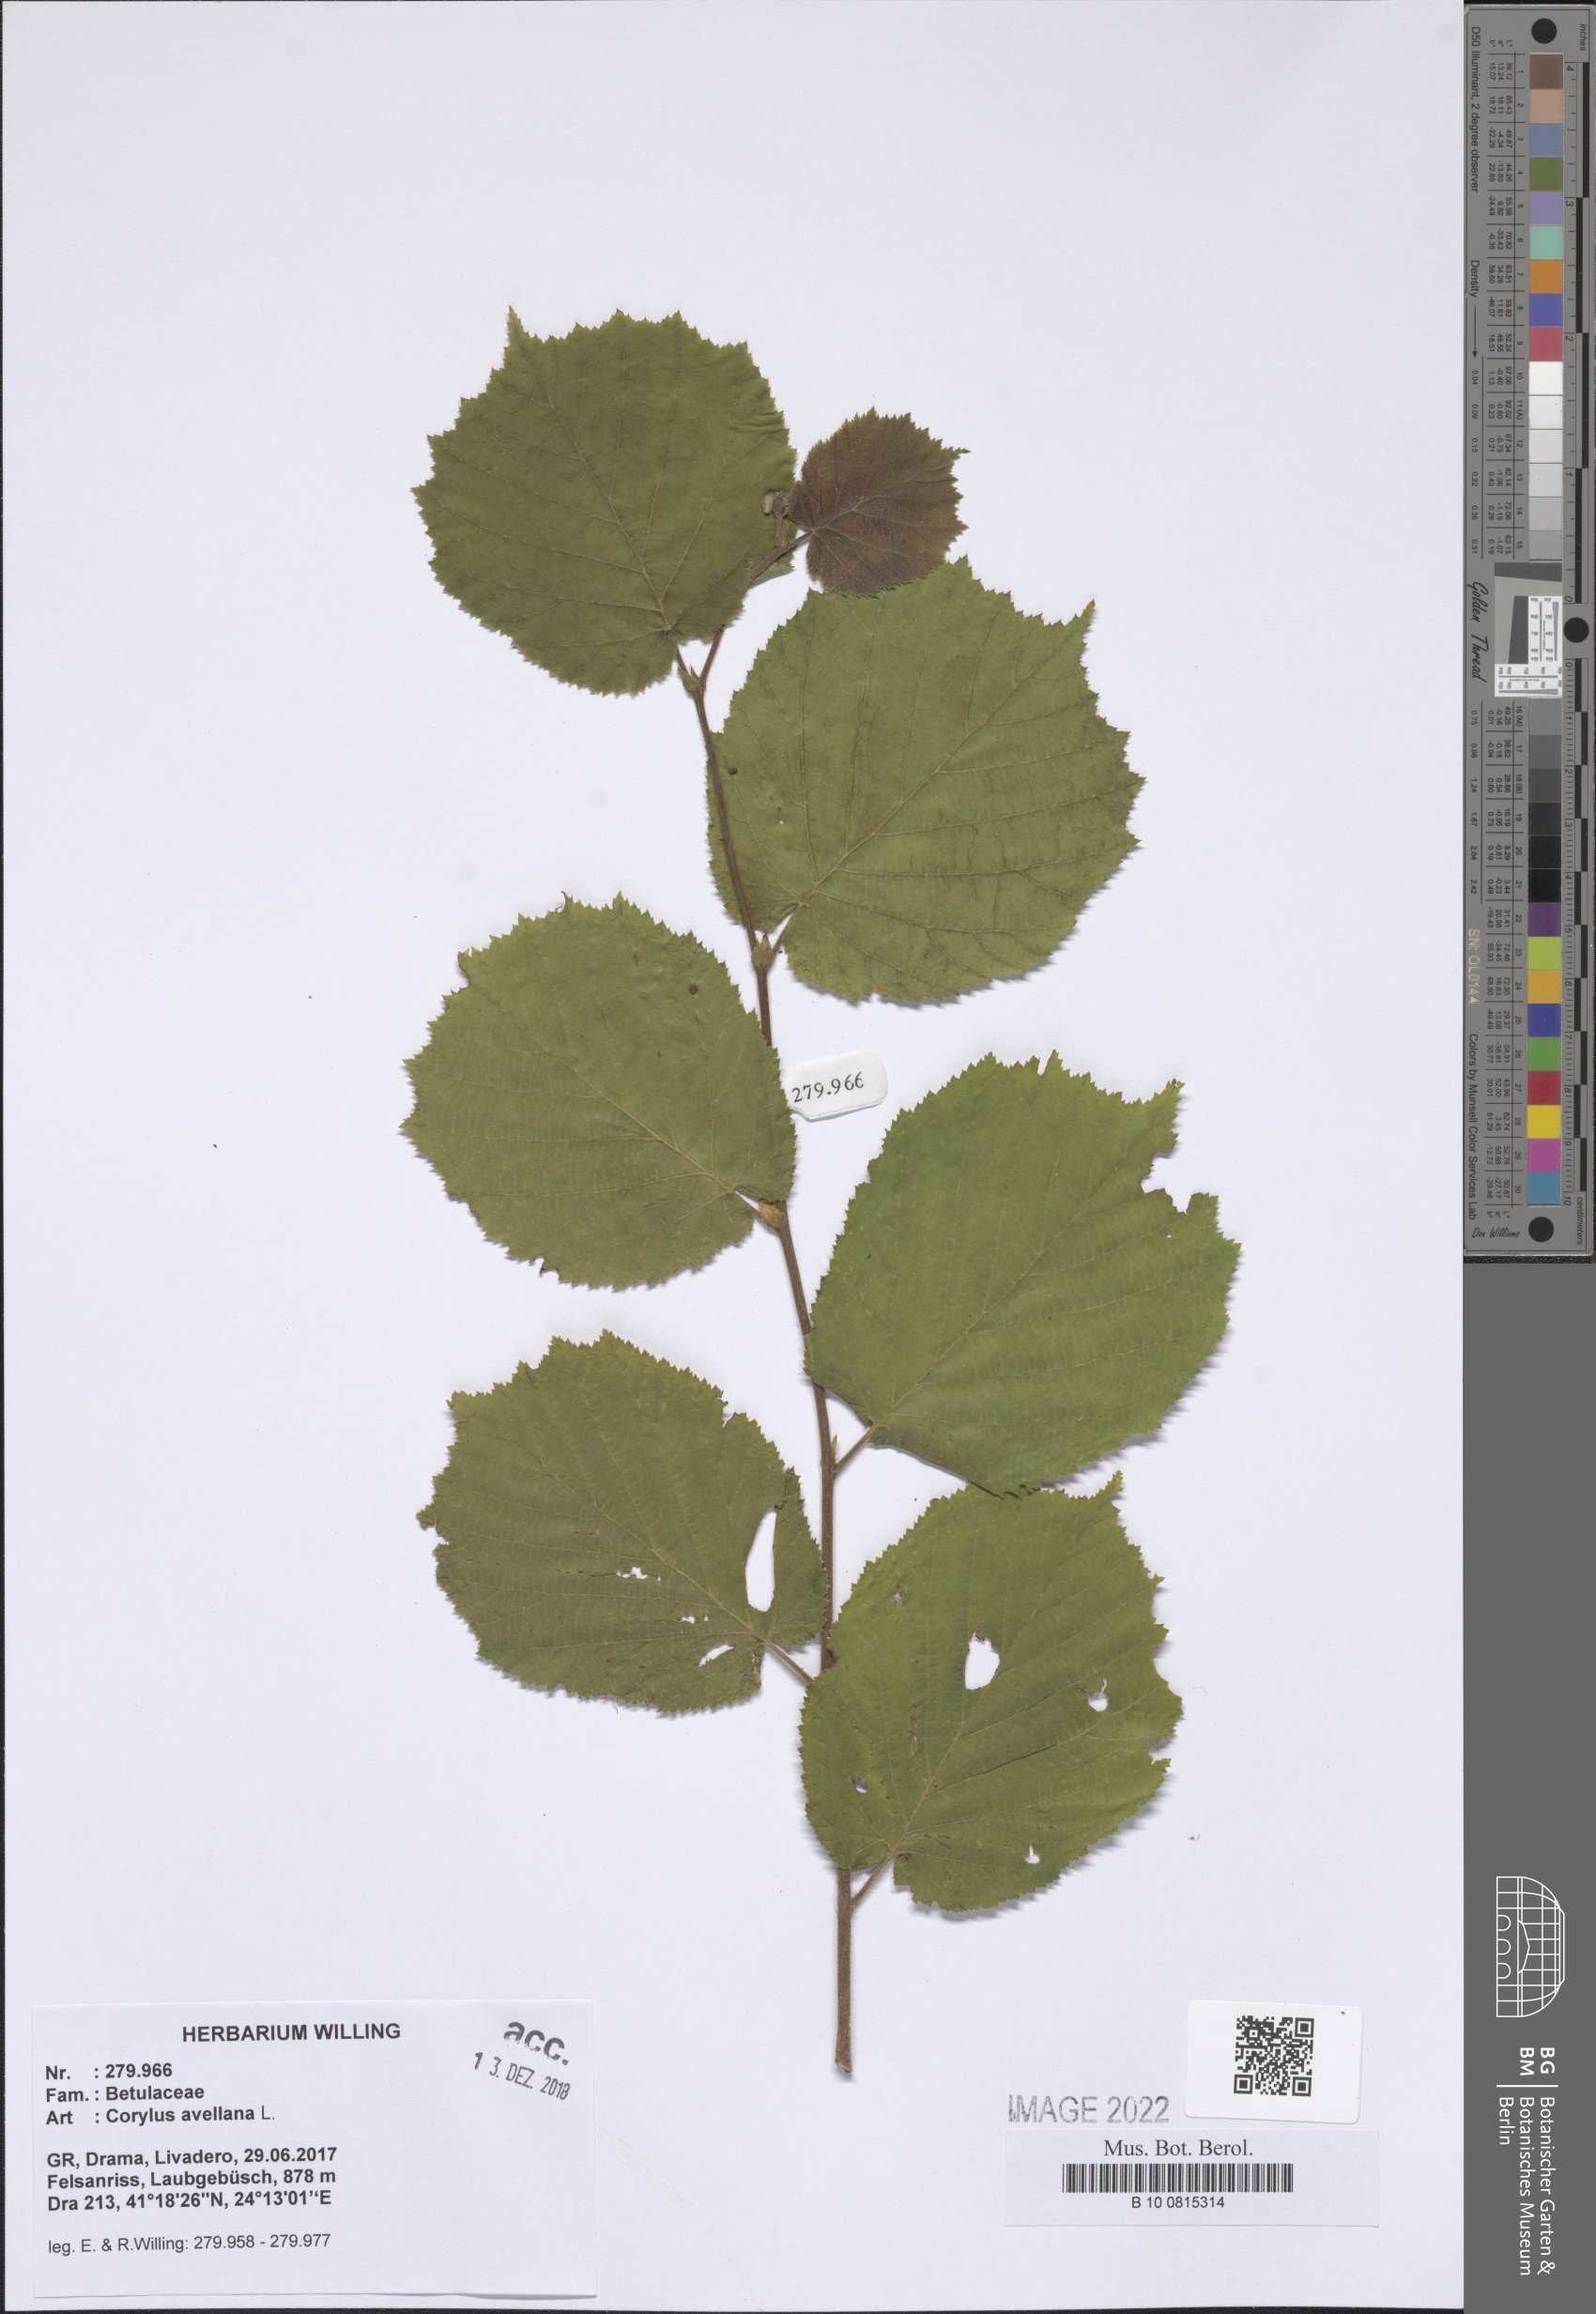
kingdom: Plantae
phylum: Tracheophyta
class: Magnoliopsida
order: Fagales
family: Betulaceae
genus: Corylus
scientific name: Corylus avellana
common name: European hazel
